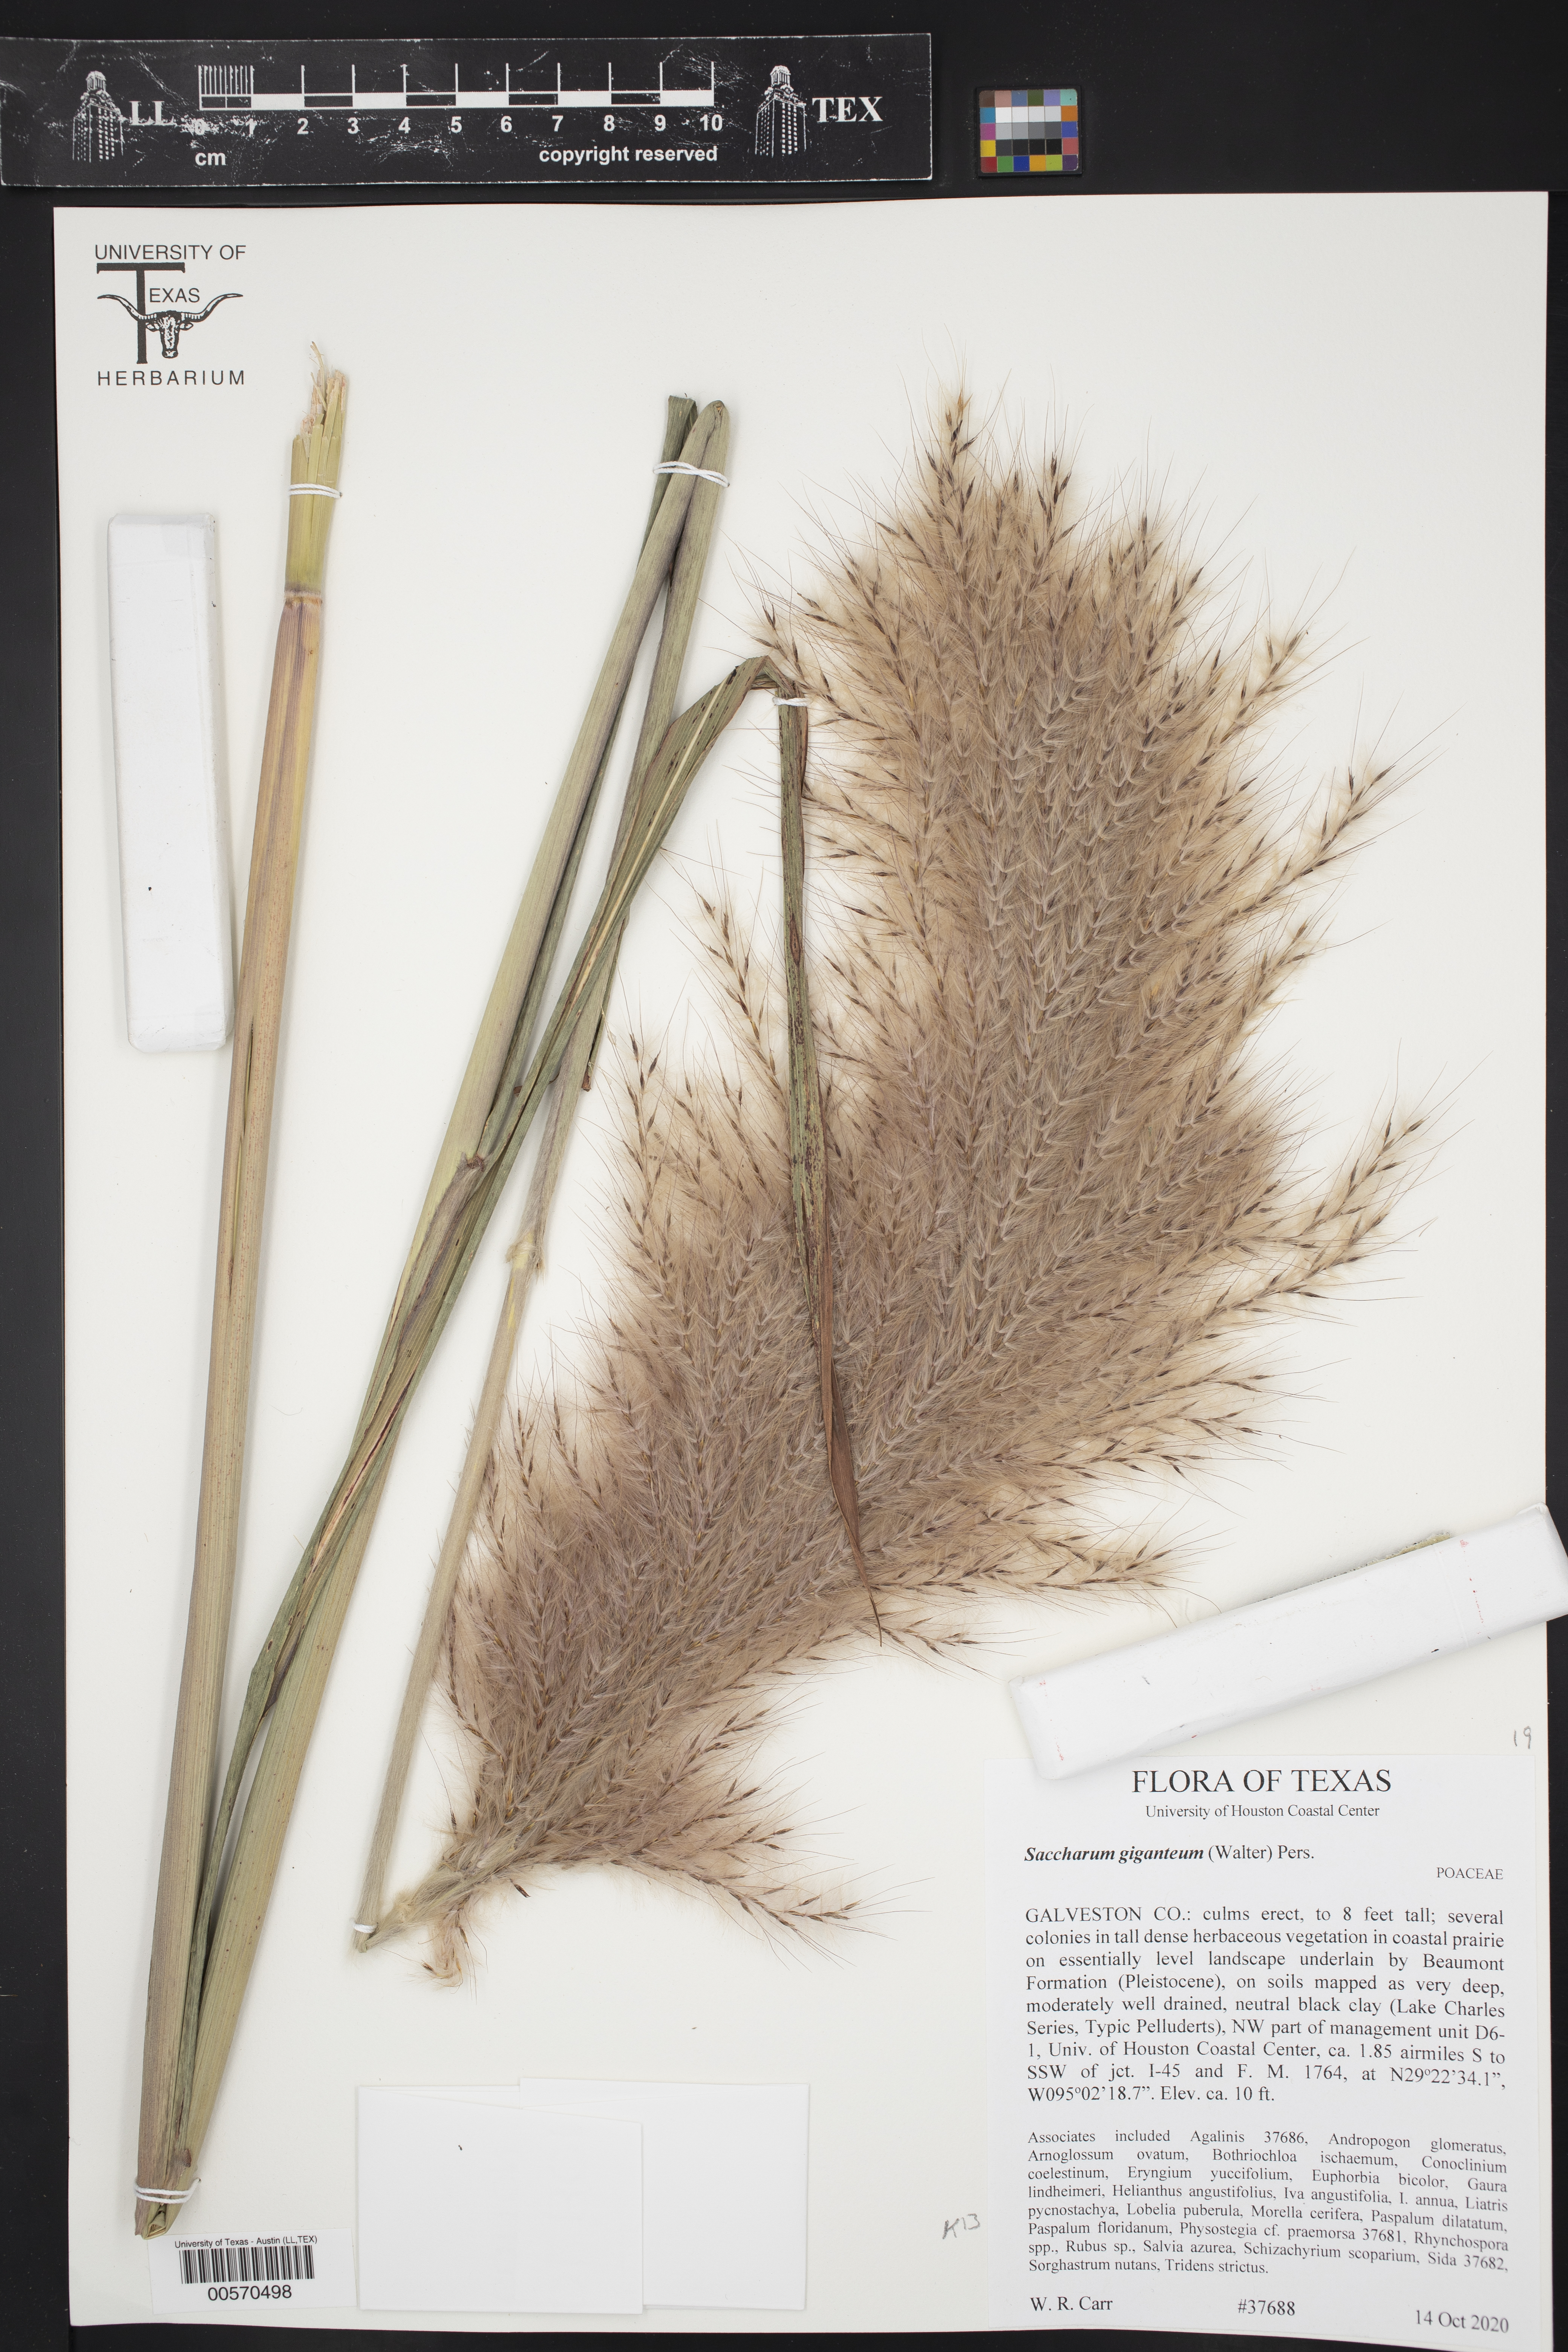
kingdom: Plantae
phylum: Tracheophyta
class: Liliopsida
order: Poales
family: Poaceae
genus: Saccharum
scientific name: Saccharum giganteum
